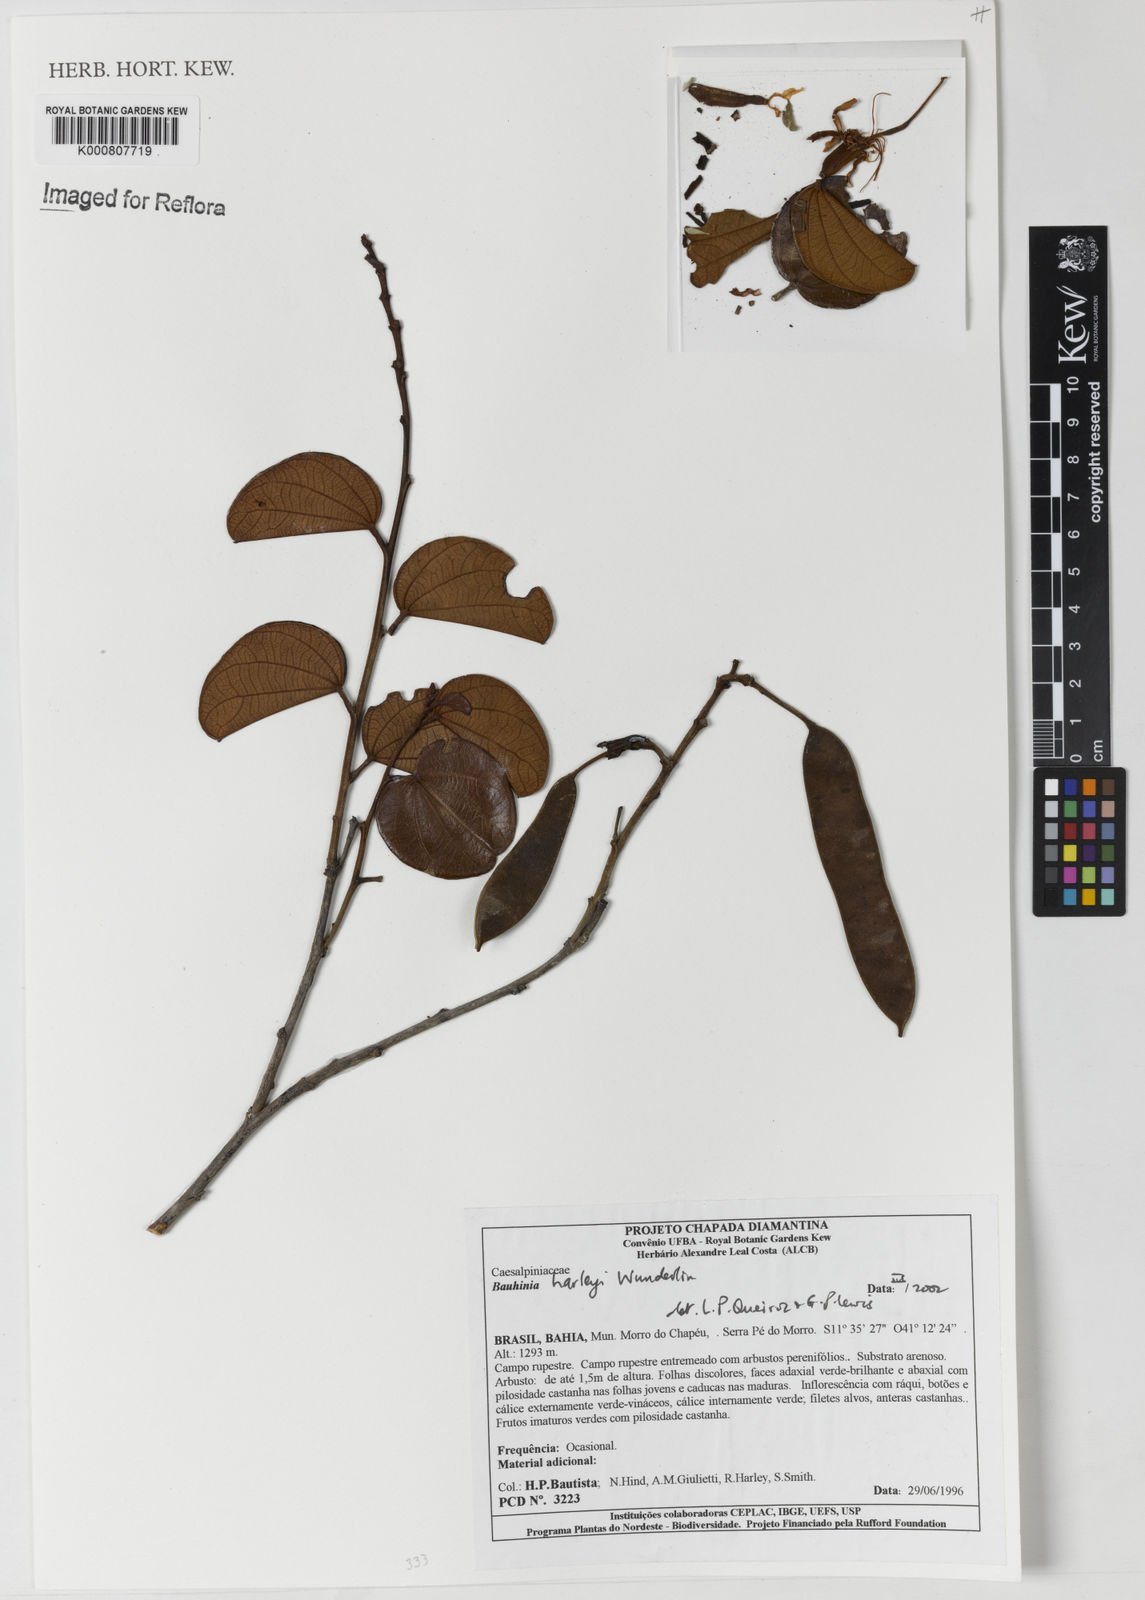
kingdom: Plantae
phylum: Tracheophyta
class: Magnoliopsida
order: Fabales
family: Fabaceae
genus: Bauhinia
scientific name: Bauhinia
